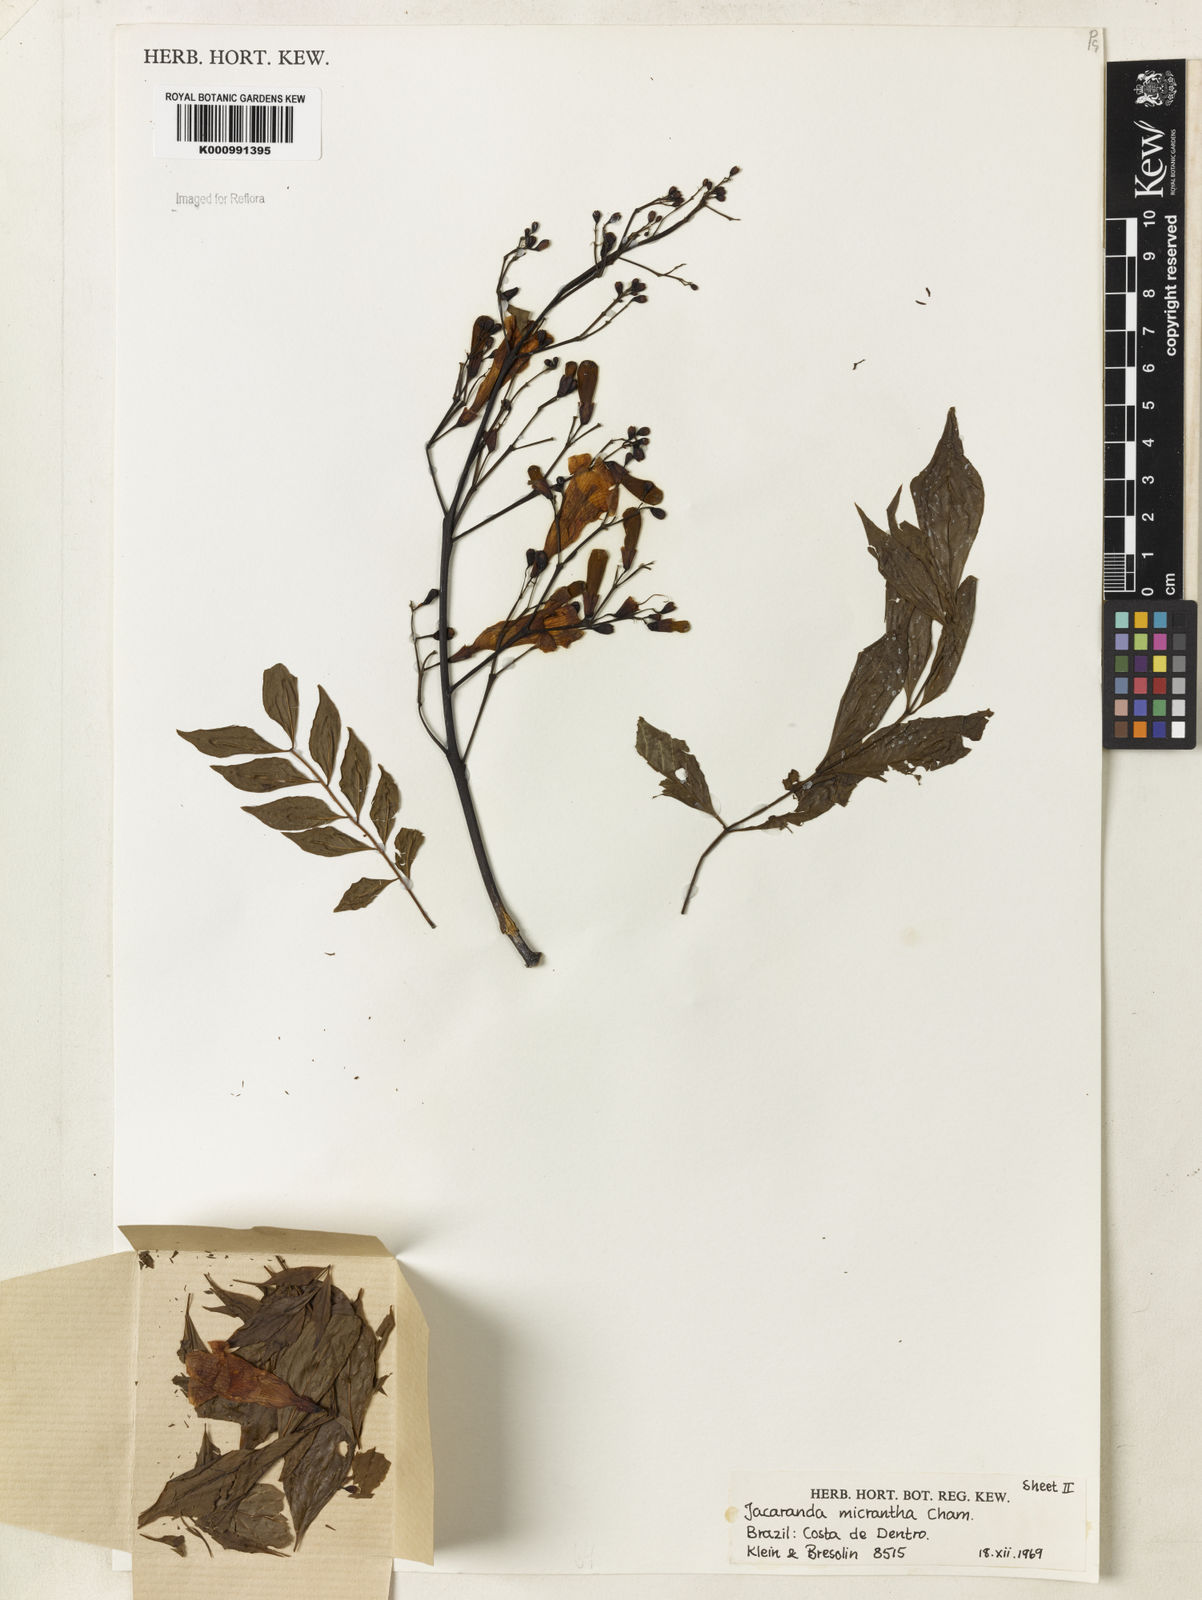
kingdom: Plantae
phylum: Tracheophyta
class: Magnoliopsida
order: Lamiales
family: Bignoniaceae
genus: Jacaranda
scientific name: Jacaranda micrantha
